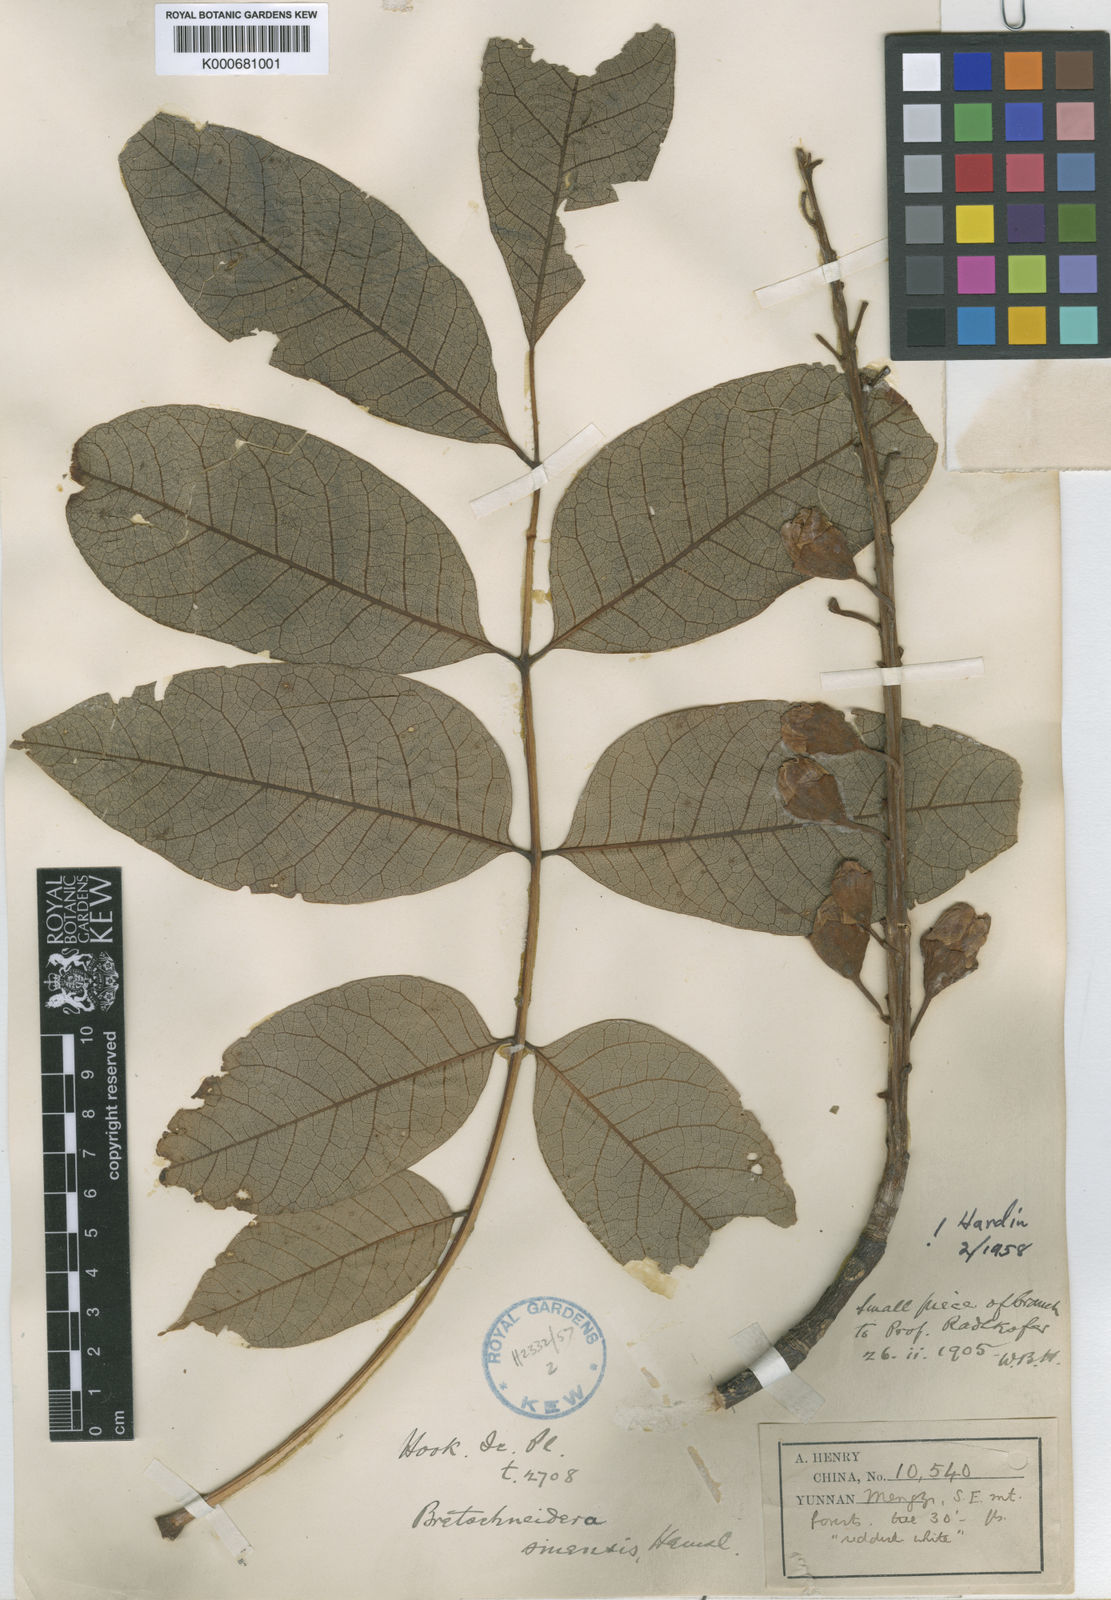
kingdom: Plantae
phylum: Tracheophyta
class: Magnoliopsida
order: Brassicales
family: Akaniaceae
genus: Bretschneidera
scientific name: Bretschneidera sinensis
